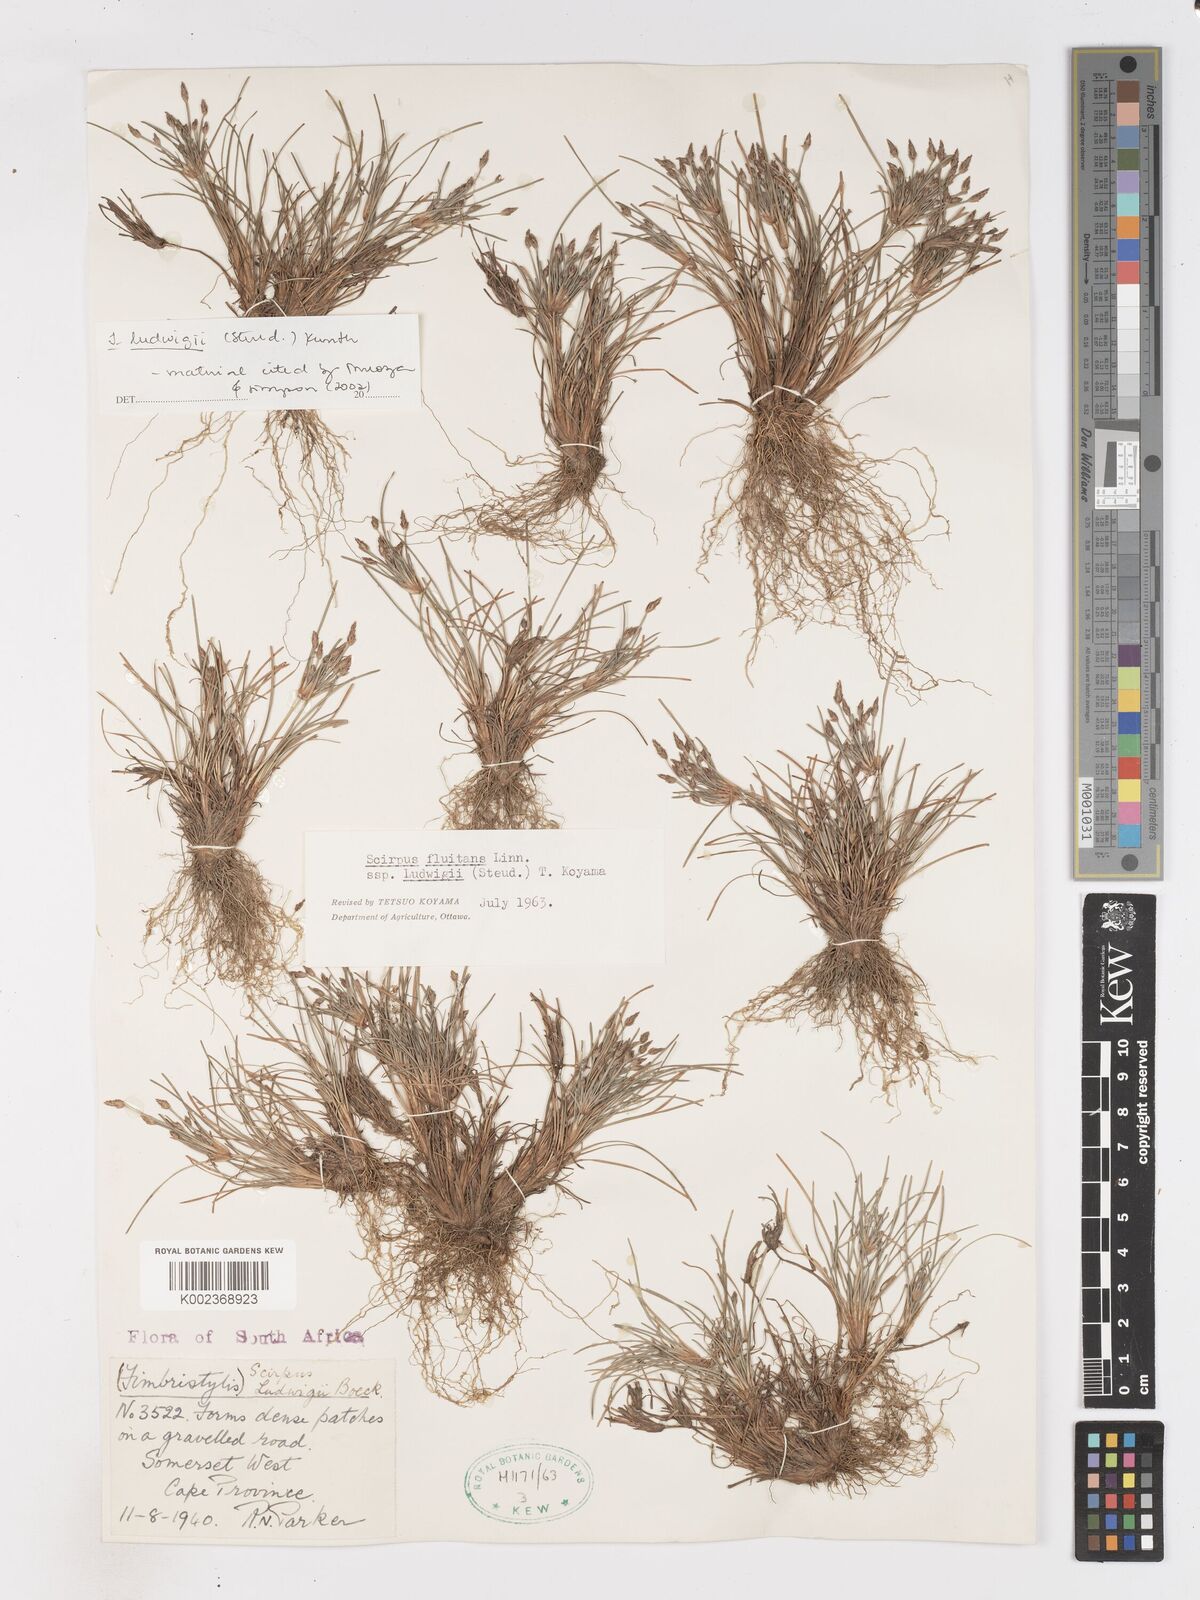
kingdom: Plantae
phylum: Tracheophyta
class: Liliopsida
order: Poales
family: Cyperaceae
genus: Isolepis
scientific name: Isolepis ludwigii
